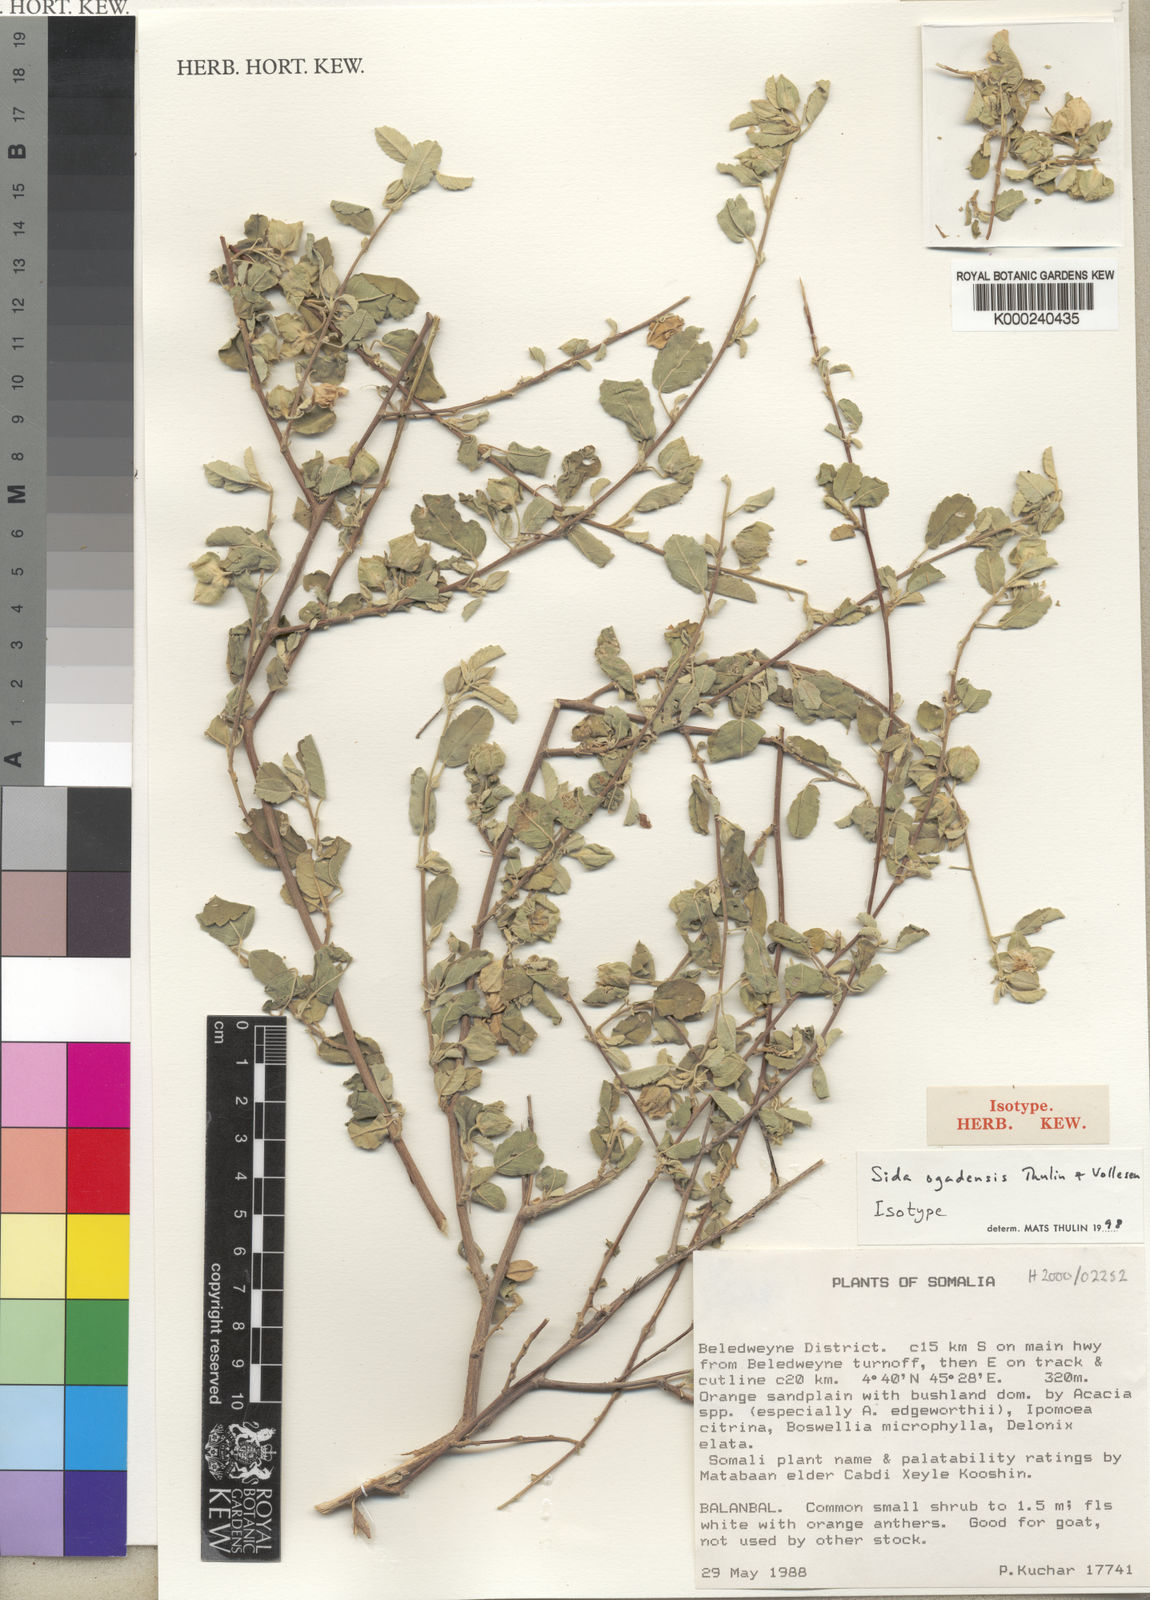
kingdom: Plantae
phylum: Tracheophyta
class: Magnoliopsida
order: Malvales
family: Malvaceae
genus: Sida
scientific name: Sida ogadensis
